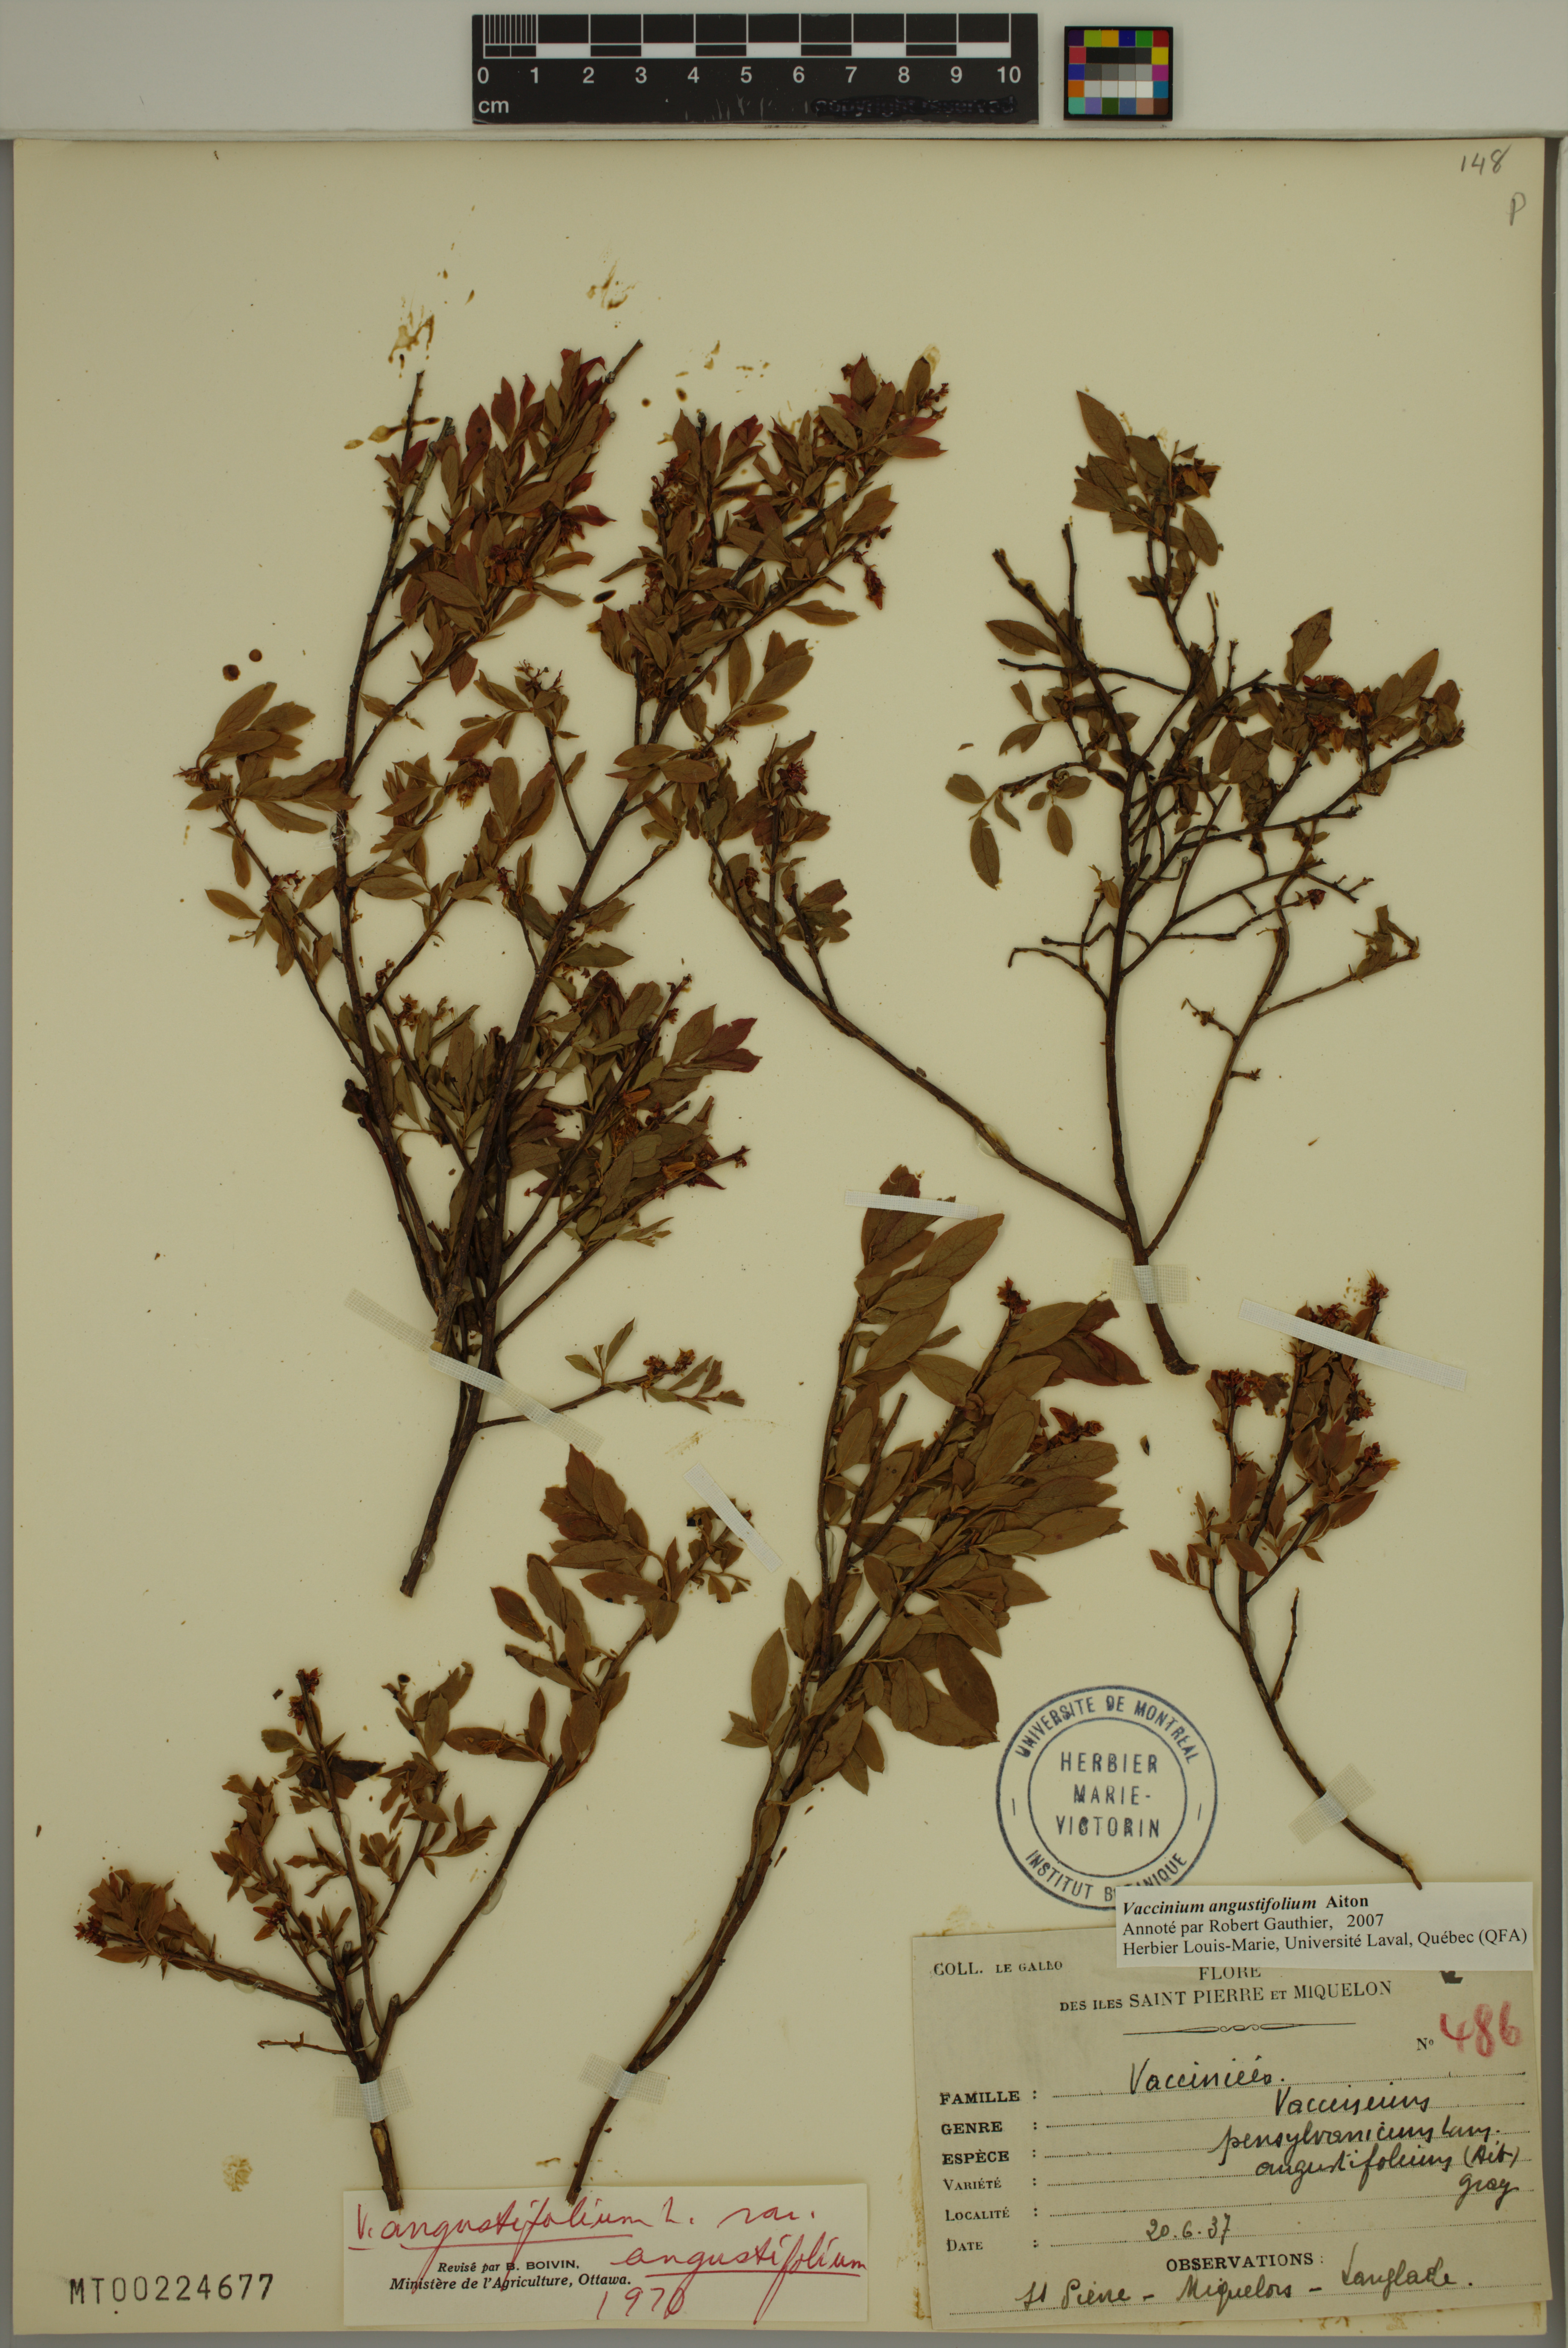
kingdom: Plantae
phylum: Tracheophyta
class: Magnoliopsida
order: Ericales
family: Ericaceae
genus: Vaccinium
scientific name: Vaccinium angustifolium
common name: Early lowbush blueberry
